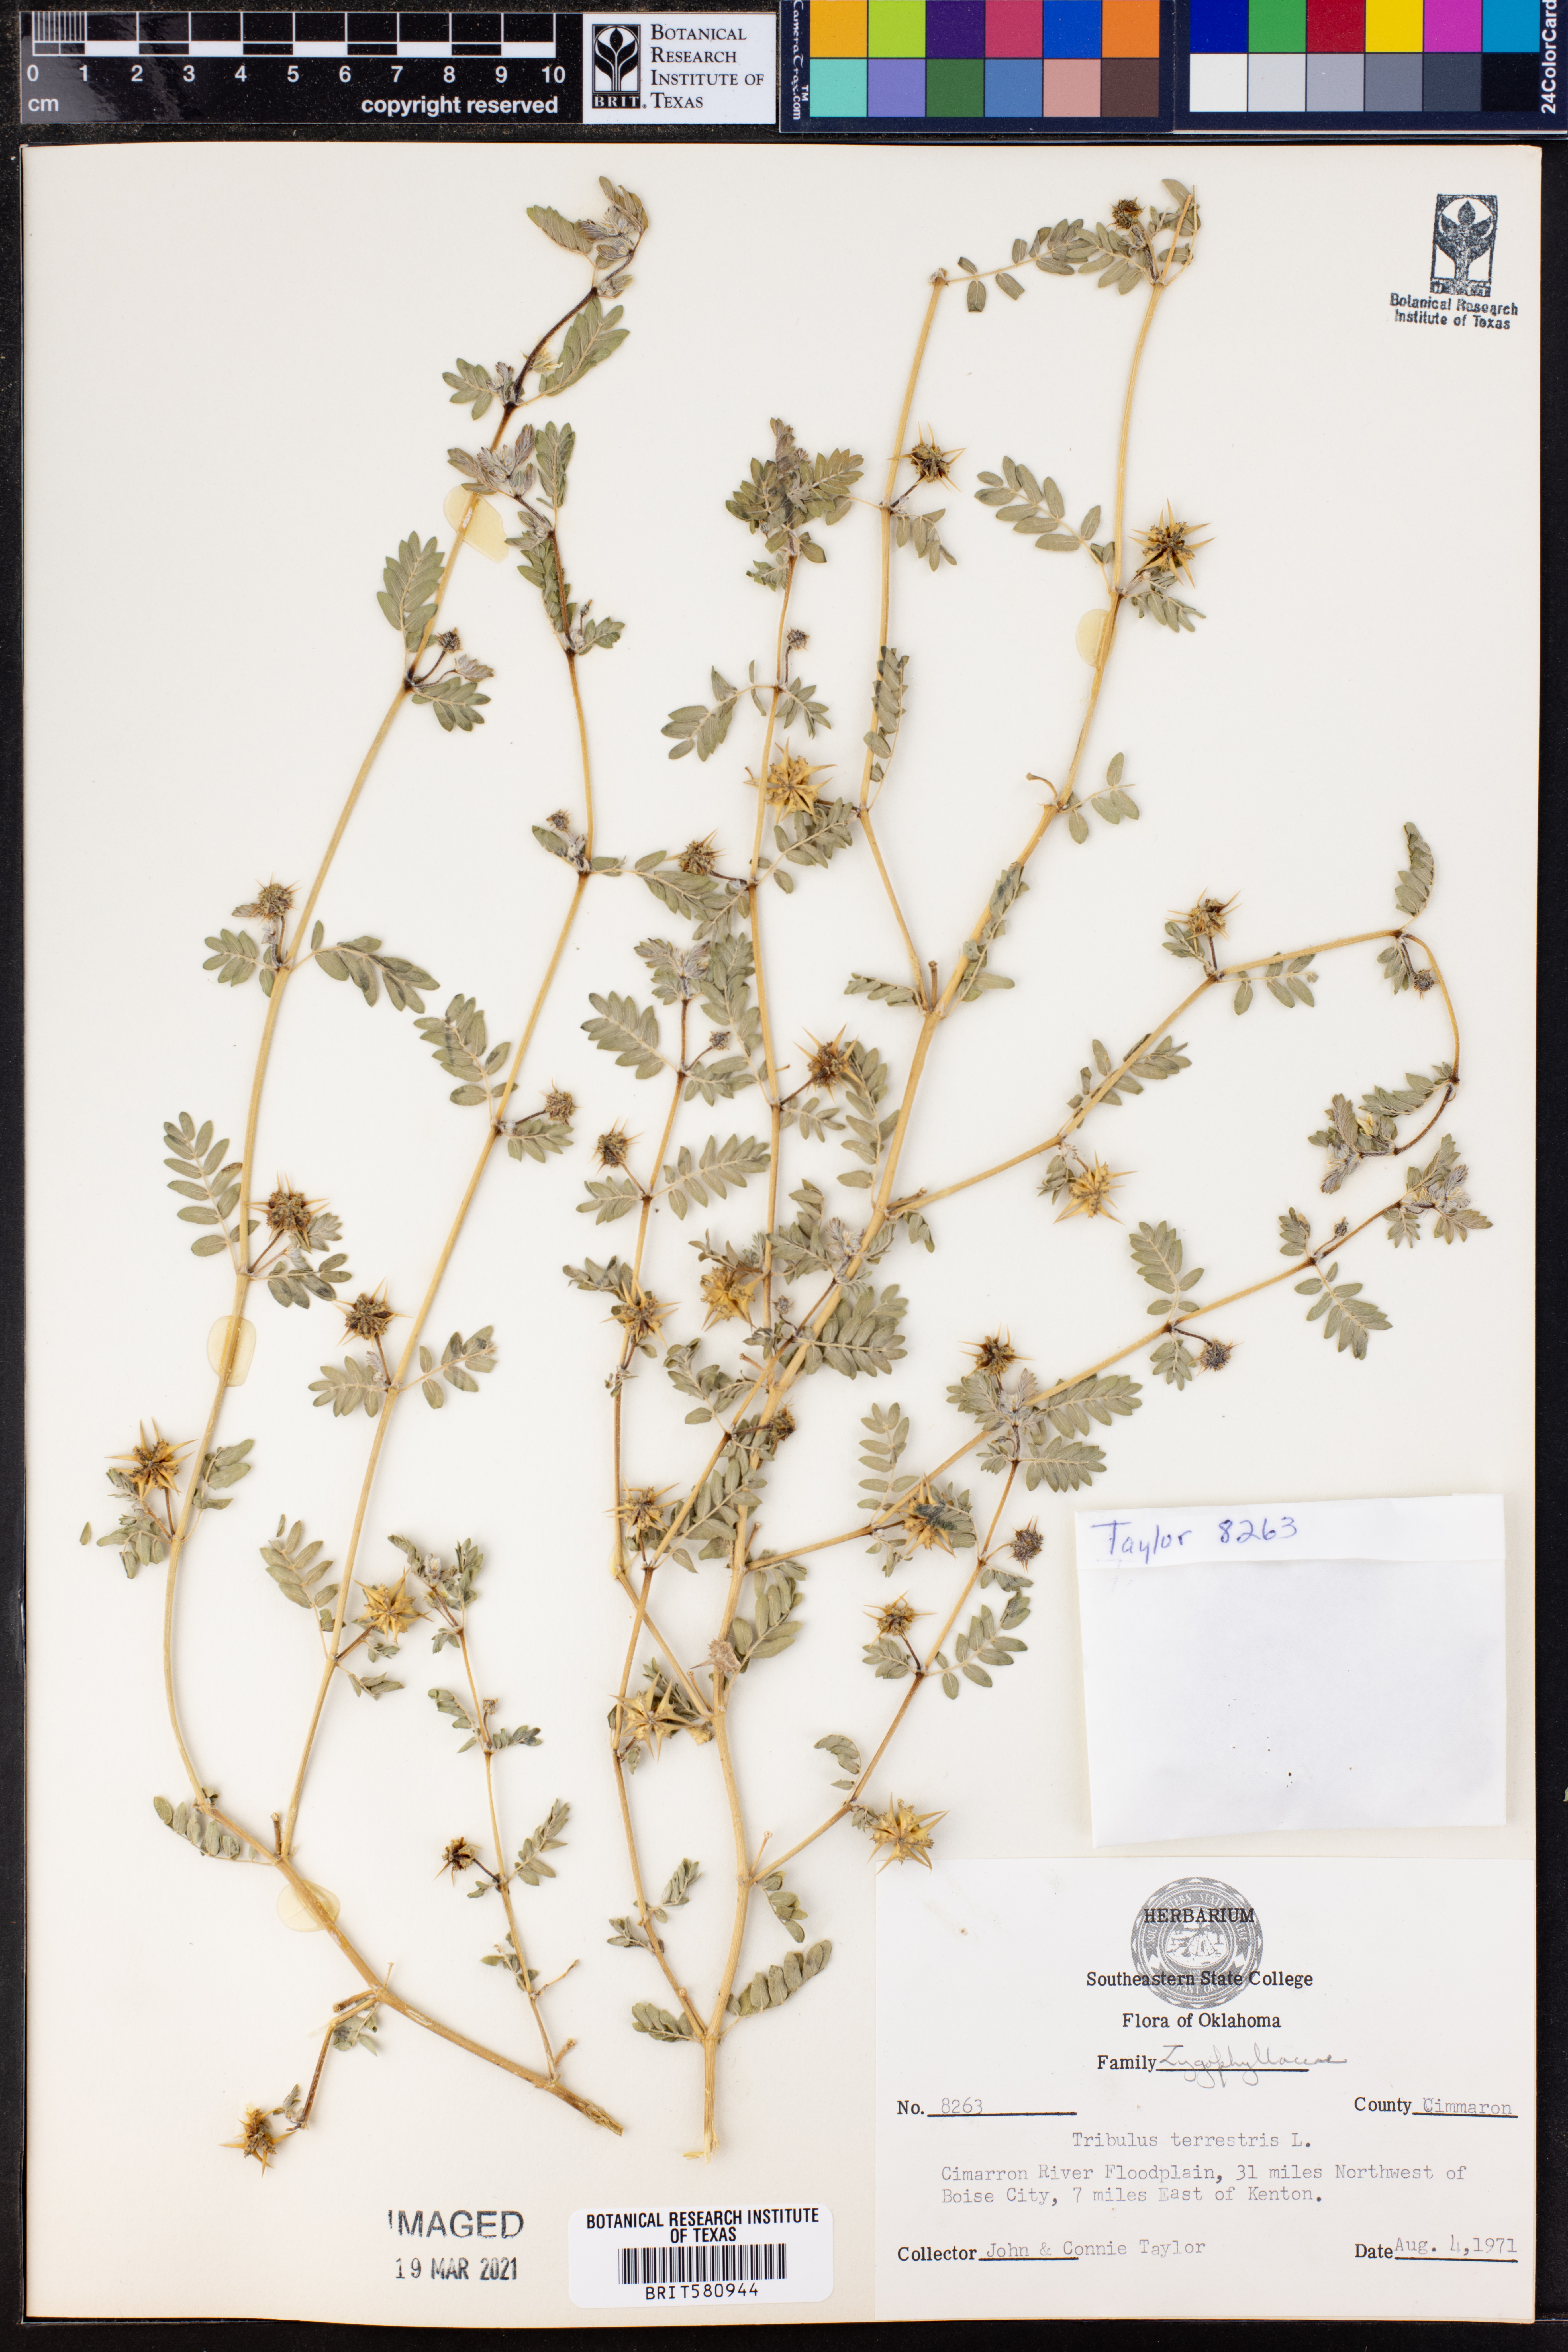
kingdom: Plantae
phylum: Tracheophyta
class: Magnoliopsida
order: Zygophyllales
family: Zygophyllaceae
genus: Tribulus
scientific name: Tribulus terrestris
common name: Puncturevine
